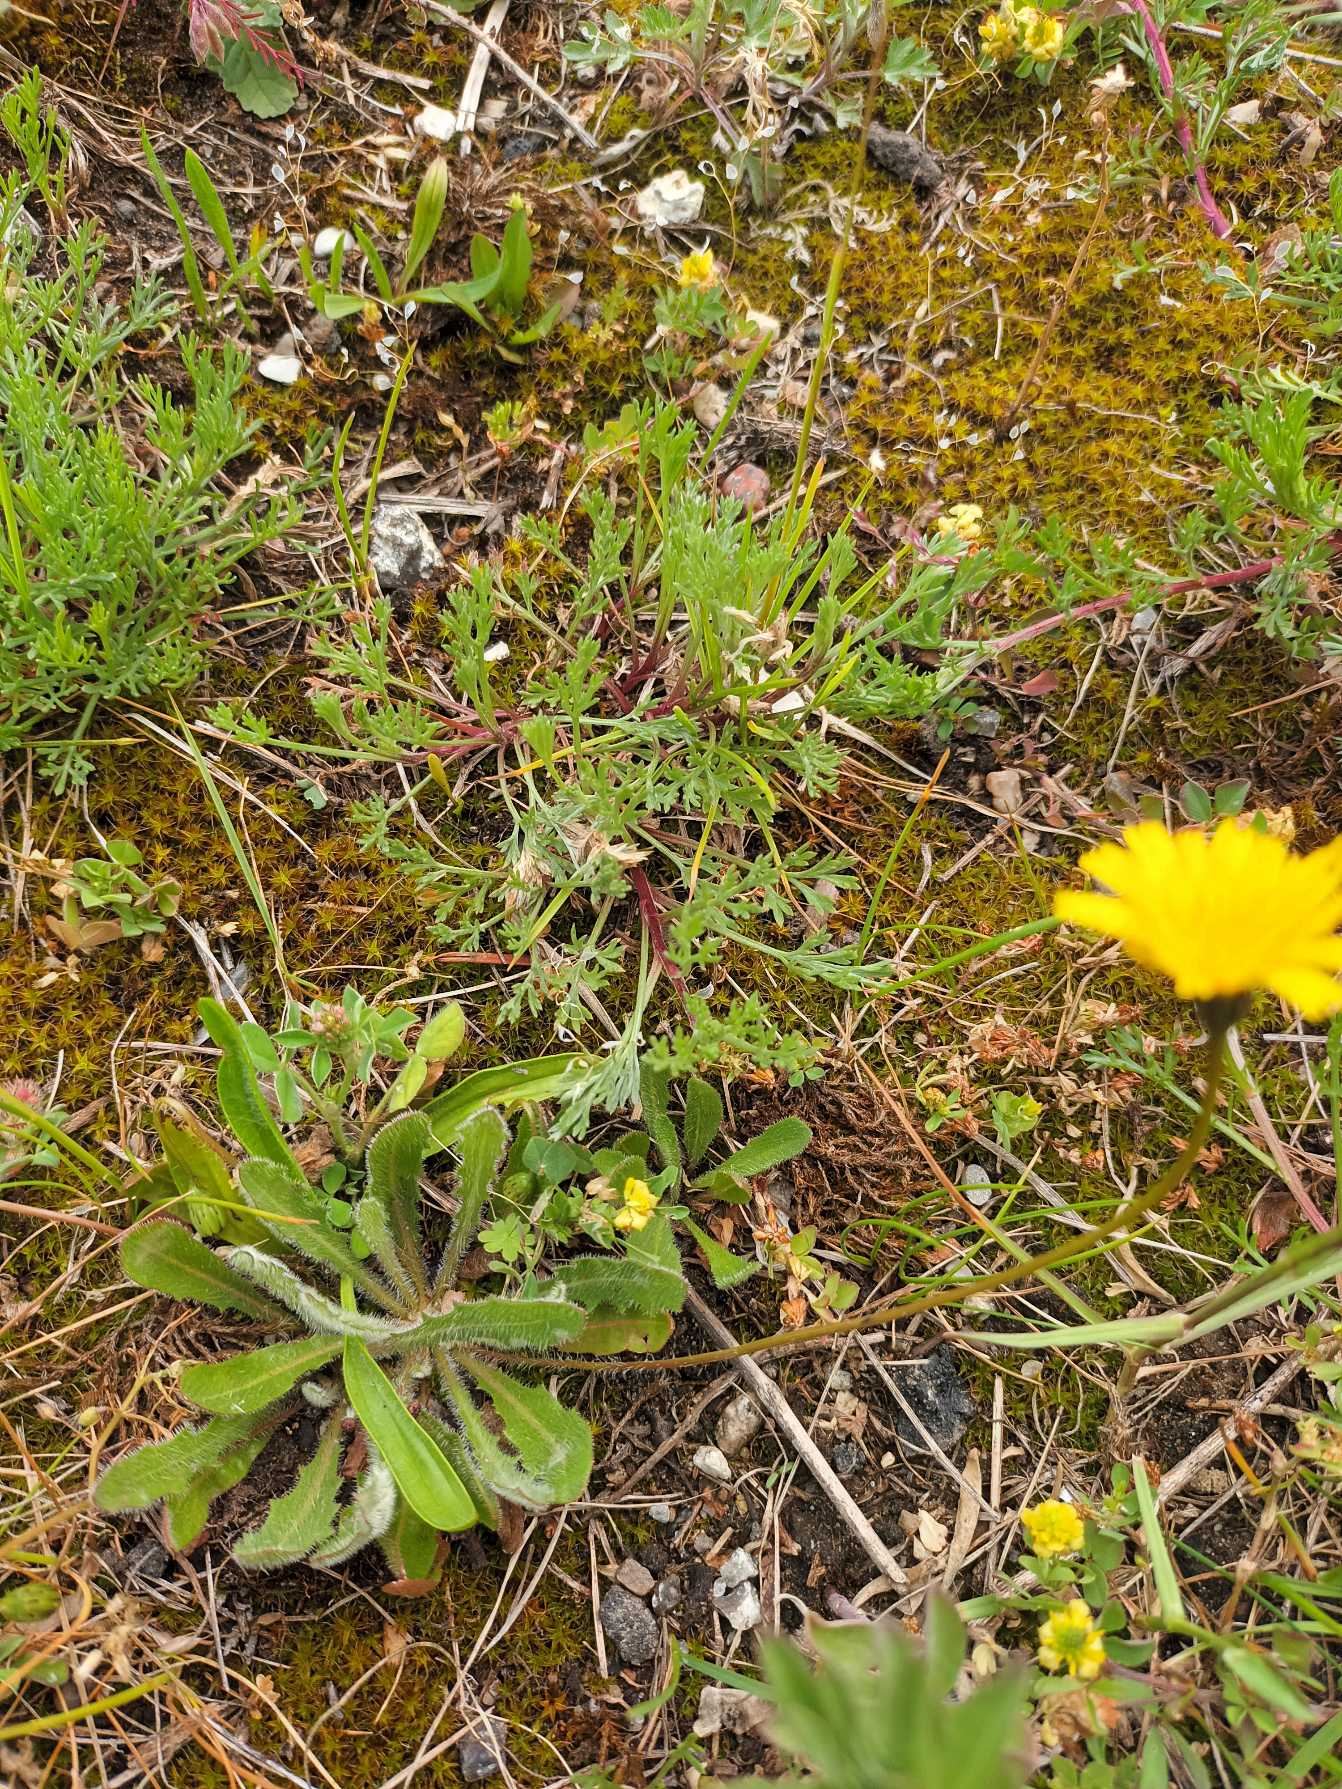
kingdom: Plantae
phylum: Tracheophyta
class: Magnoliopsida
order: Asterales
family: Asteraceae
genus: Thrincia
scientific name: Thrincia saxatilis
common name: Hundesalat
